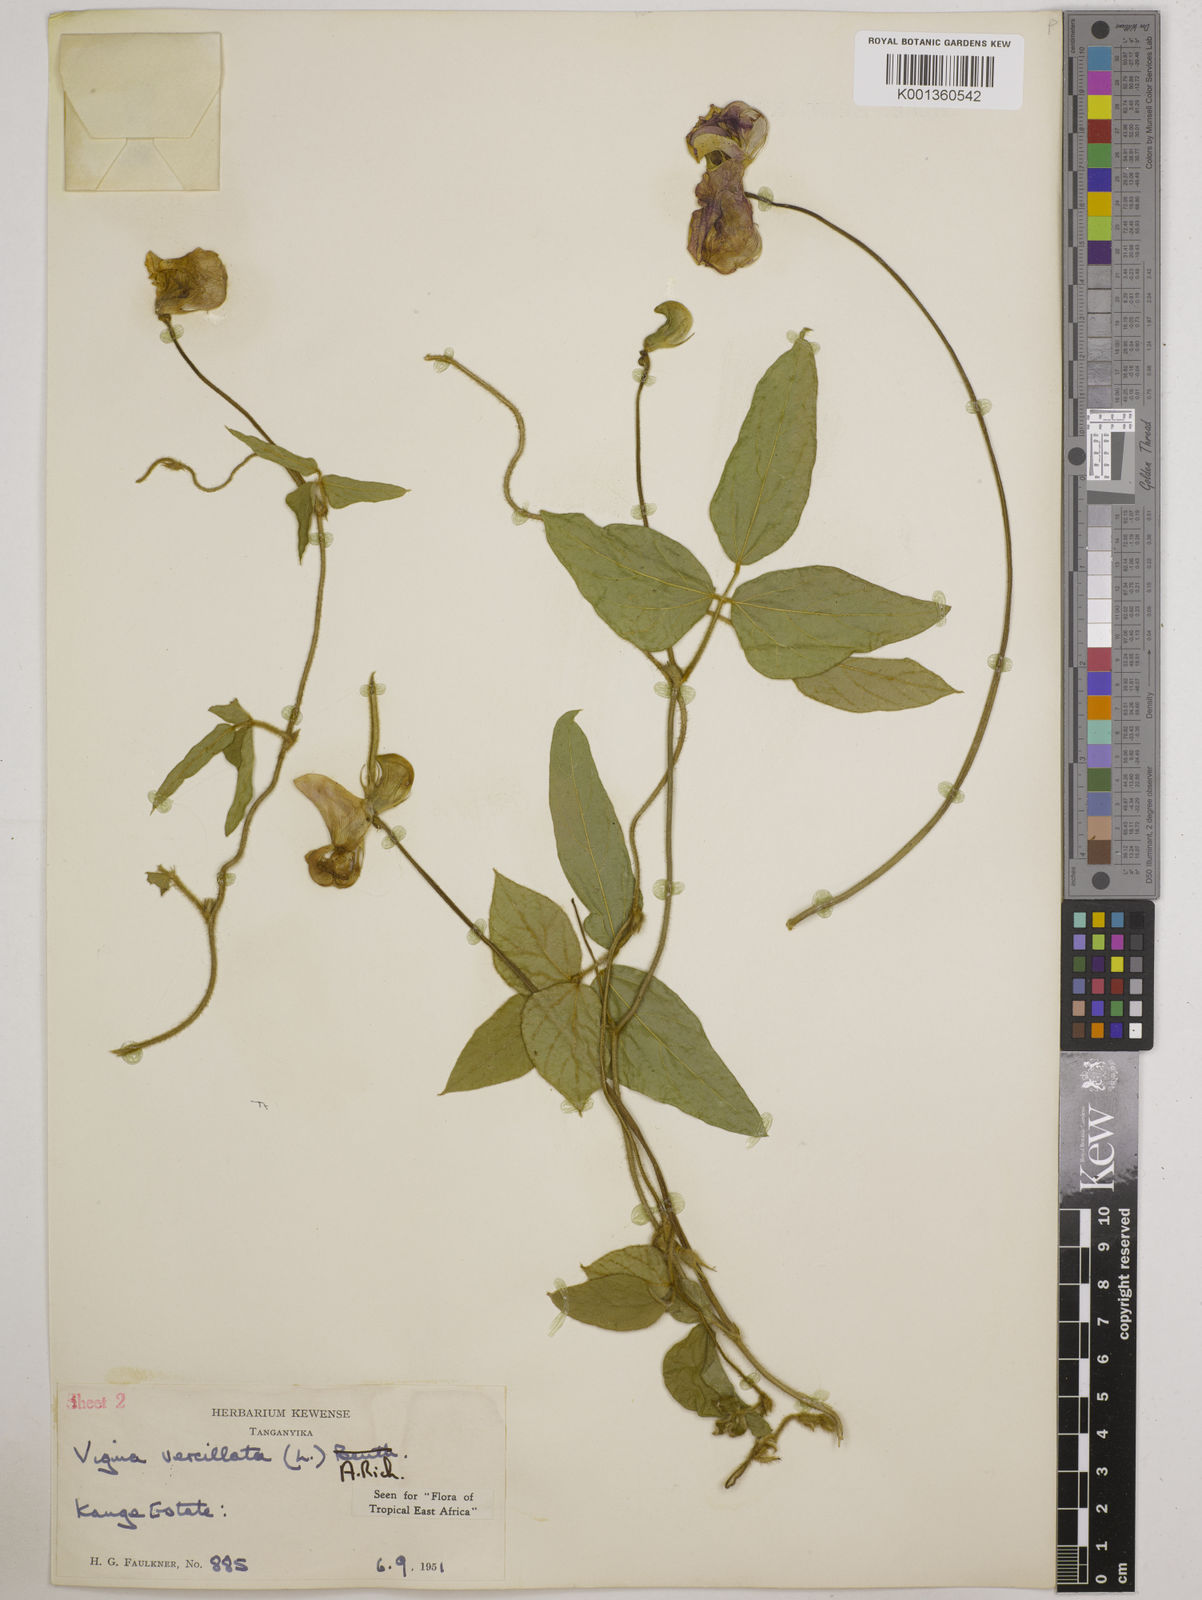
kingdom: Plantae
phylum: Tracheophyta
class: Magnoliopsida
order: Fabales
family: Fabaceae
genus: Vigna
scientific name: Vigna vexillata
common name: Zombi pea
